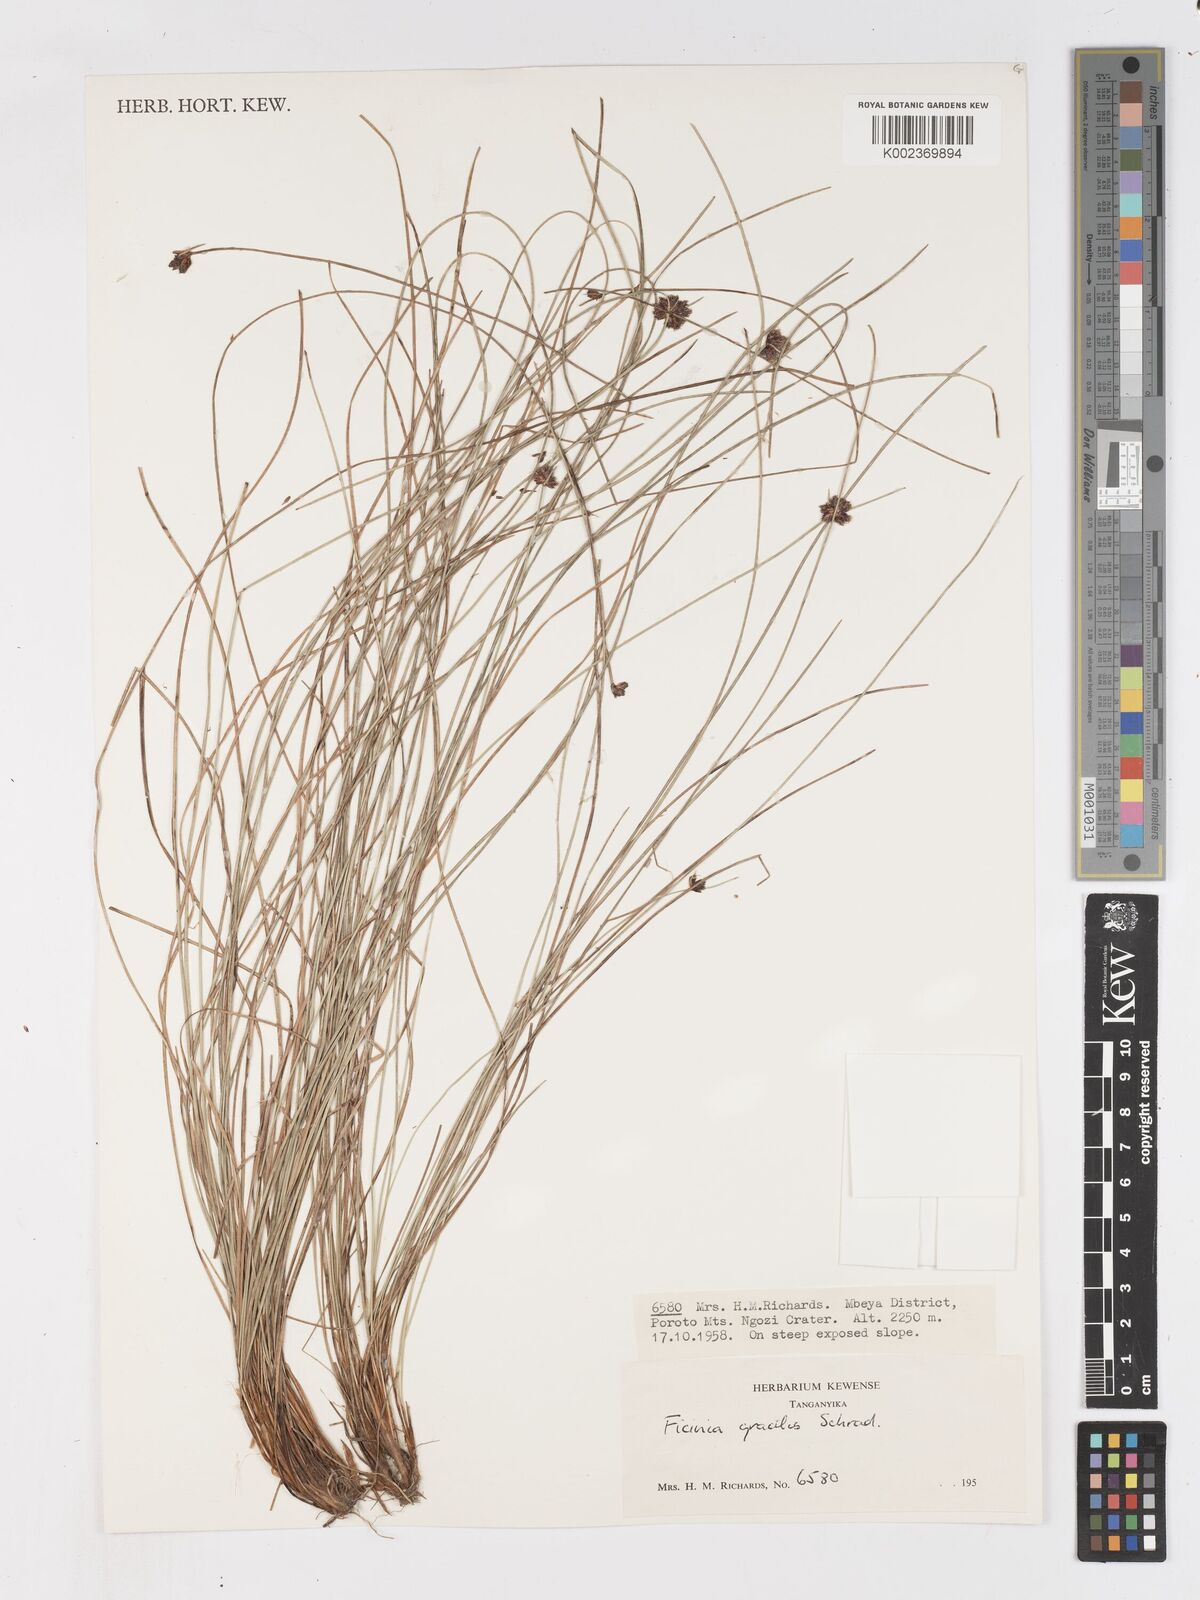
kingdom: Plantae
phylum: Tracheophyta
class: Liliopsida
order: Poales
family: Cyperaceae
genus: Ficinia
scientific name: Ficinia gracilis
